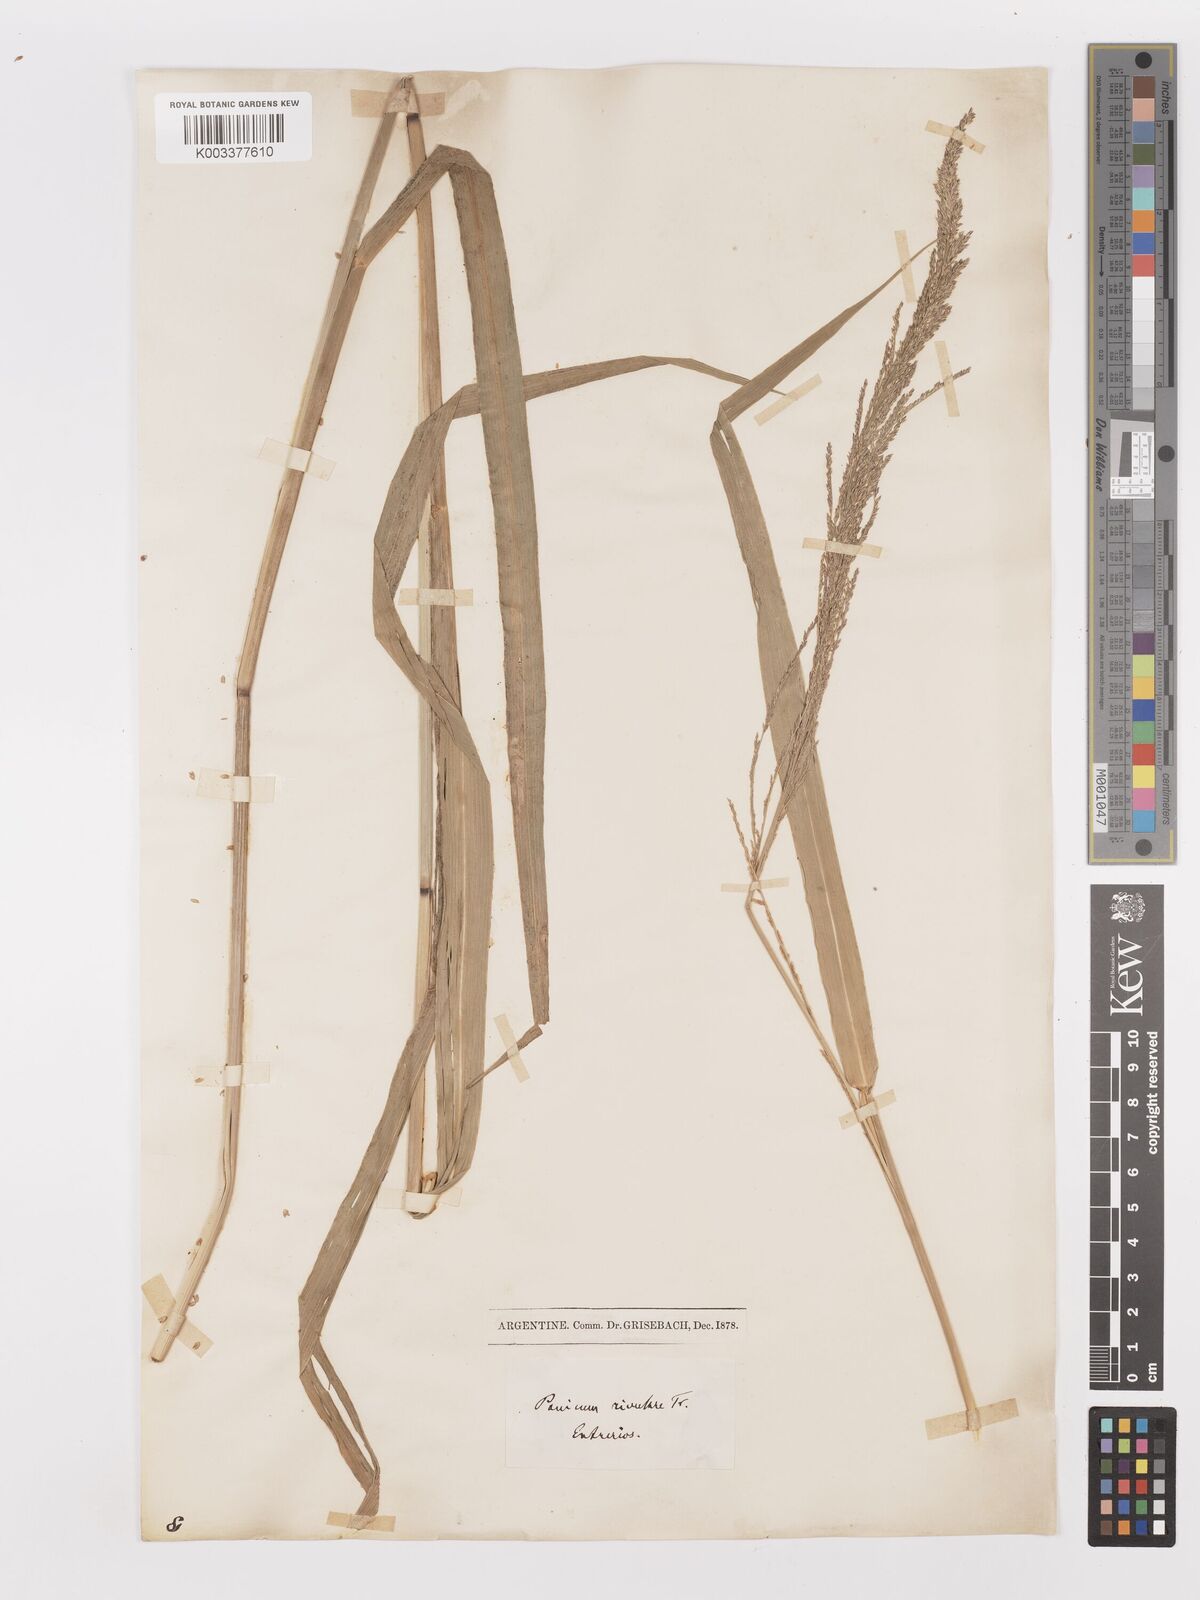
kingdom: Plantae
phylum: Tracheophyta
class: Liliopsida
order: Poales
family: Poaceae
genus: Hymenachne
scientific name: Hymenachne pernambucensis
